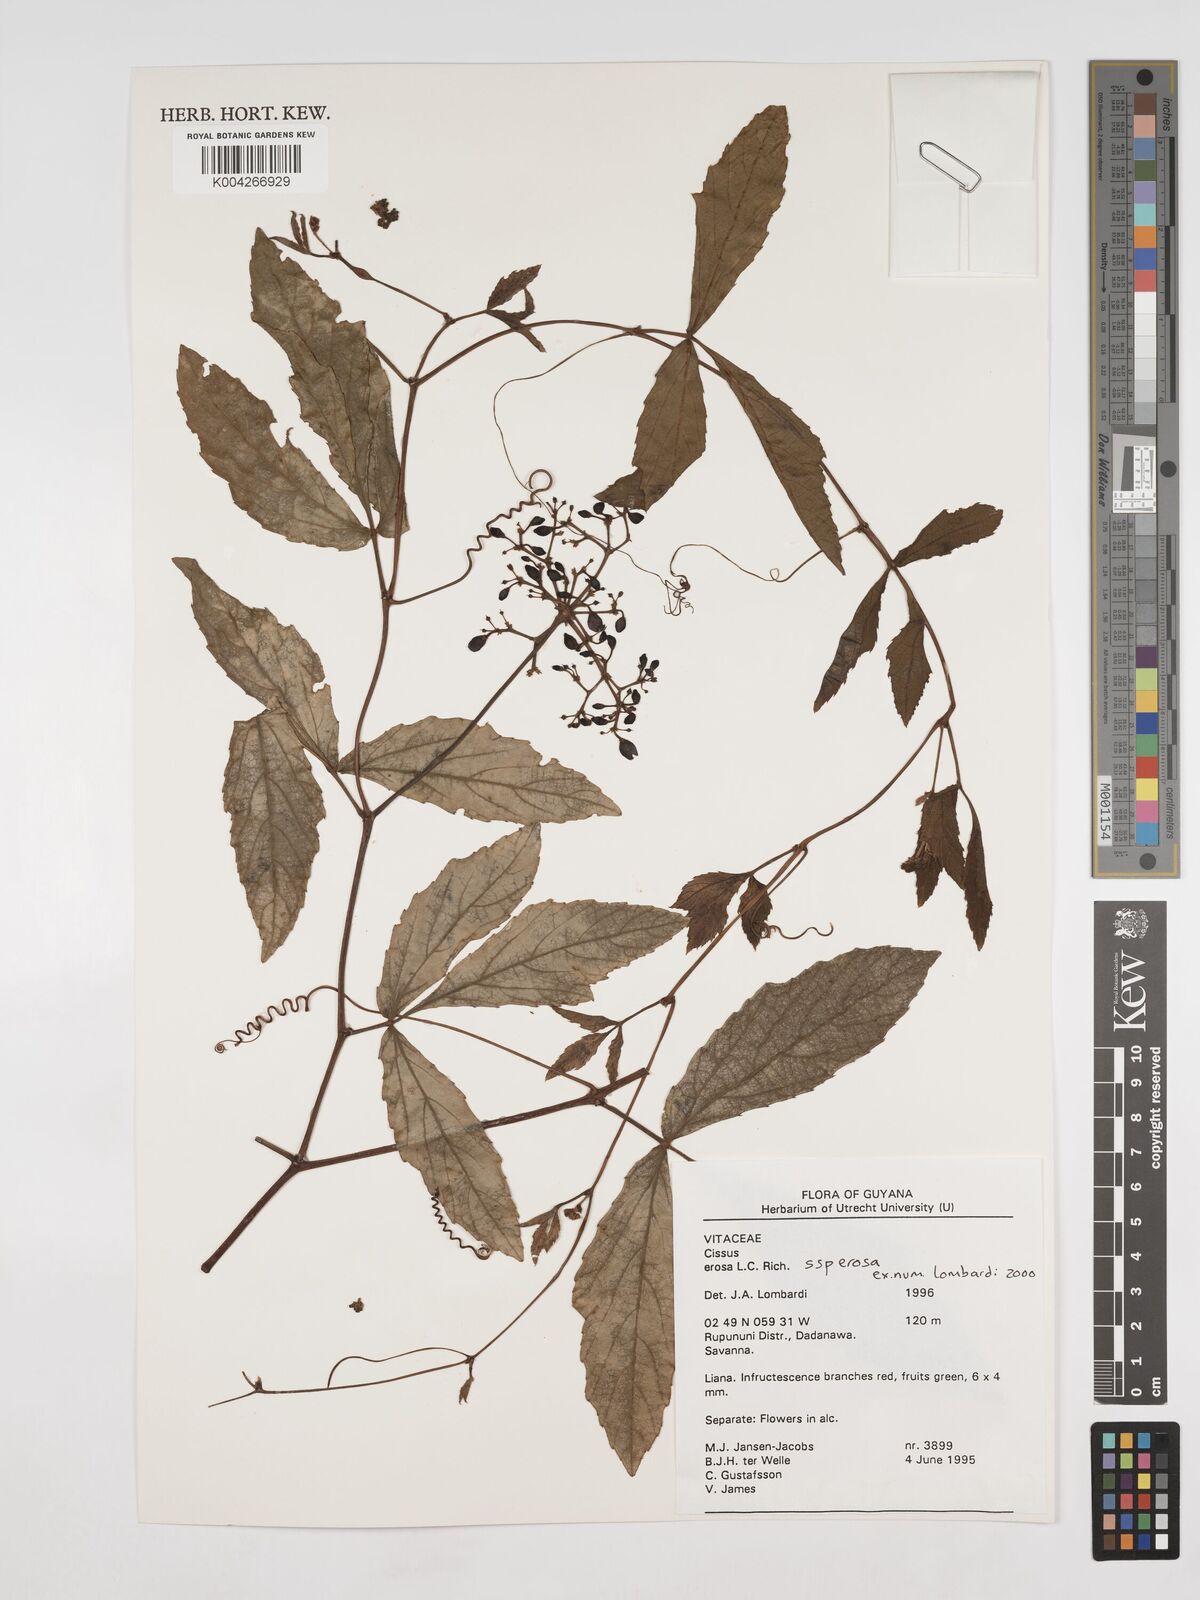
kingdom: Plantae
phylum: Tracheophyta
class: Magnoliopsida
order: Vitales
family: Vitaceae
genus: Cissus
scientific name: Cissus erosa
